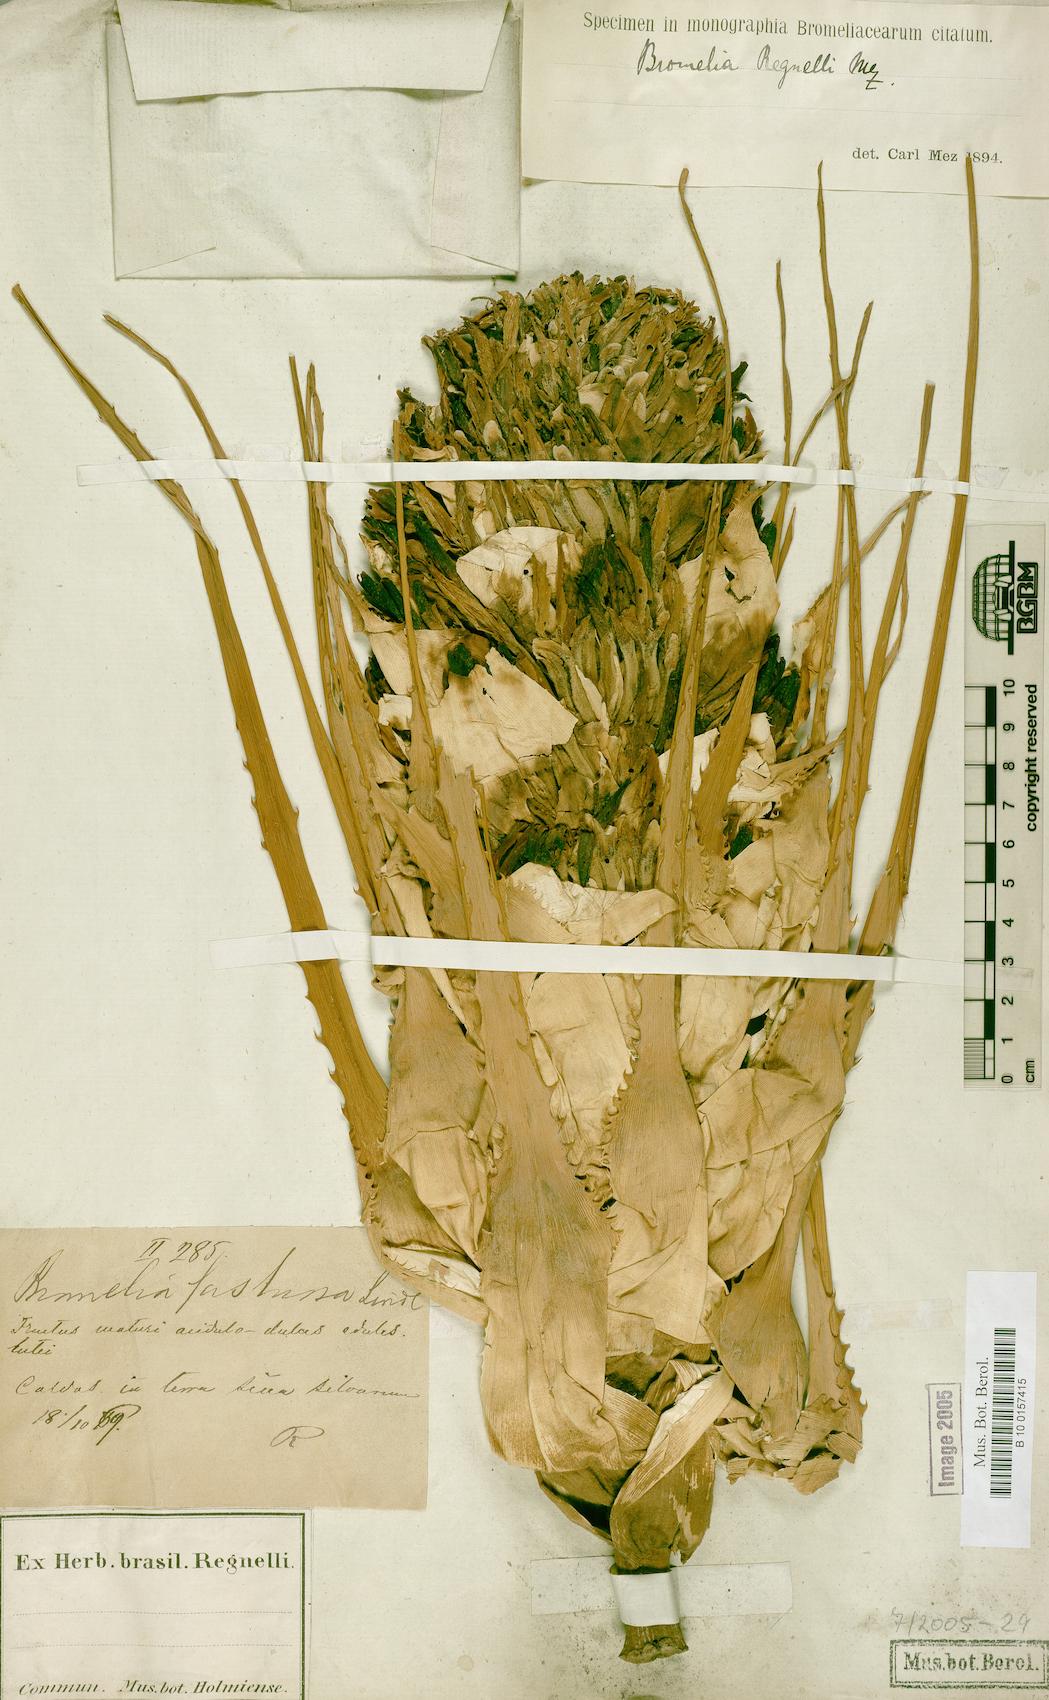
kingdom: Plantae
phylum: Tracheophyta
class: Liliopsida
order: Poales
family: Bromeliaceae
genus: Bromelia
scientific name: Bromelia regnellii
